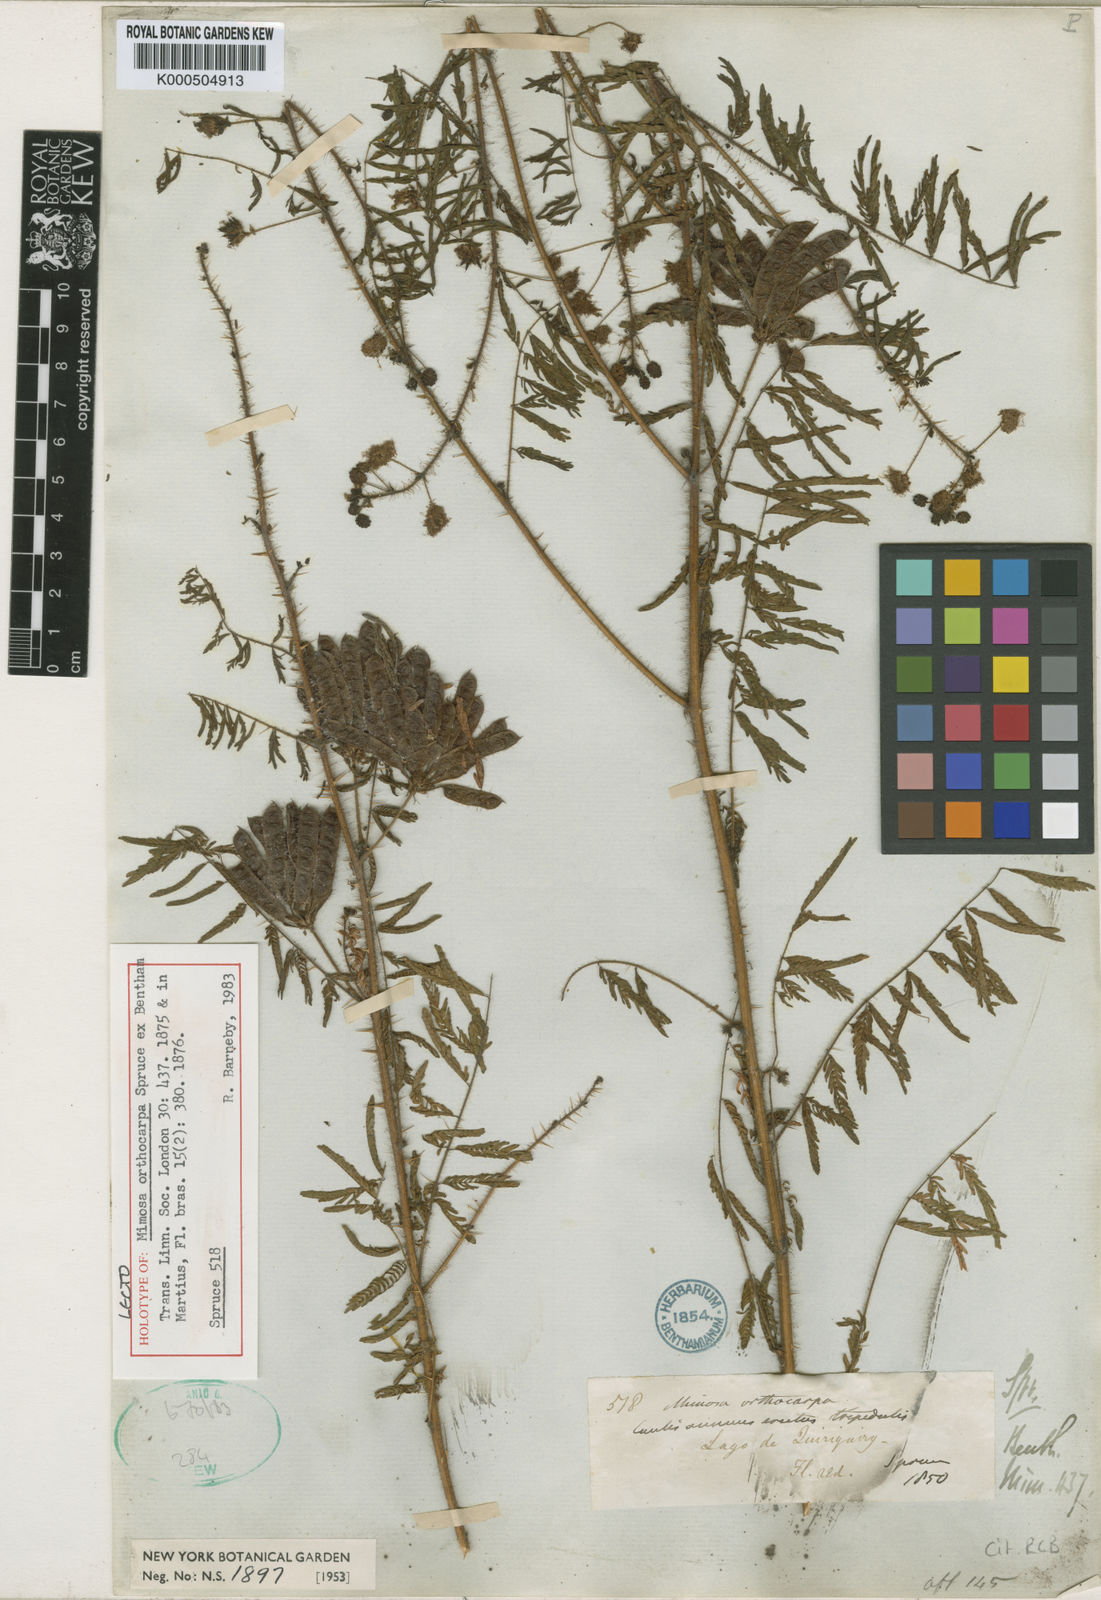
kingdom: Plantae
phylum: Tracheophyta
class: Magnoliopsida
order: Fabales
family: Fabaceae
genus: Mimosa
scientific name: Mimosa orthocarpa
